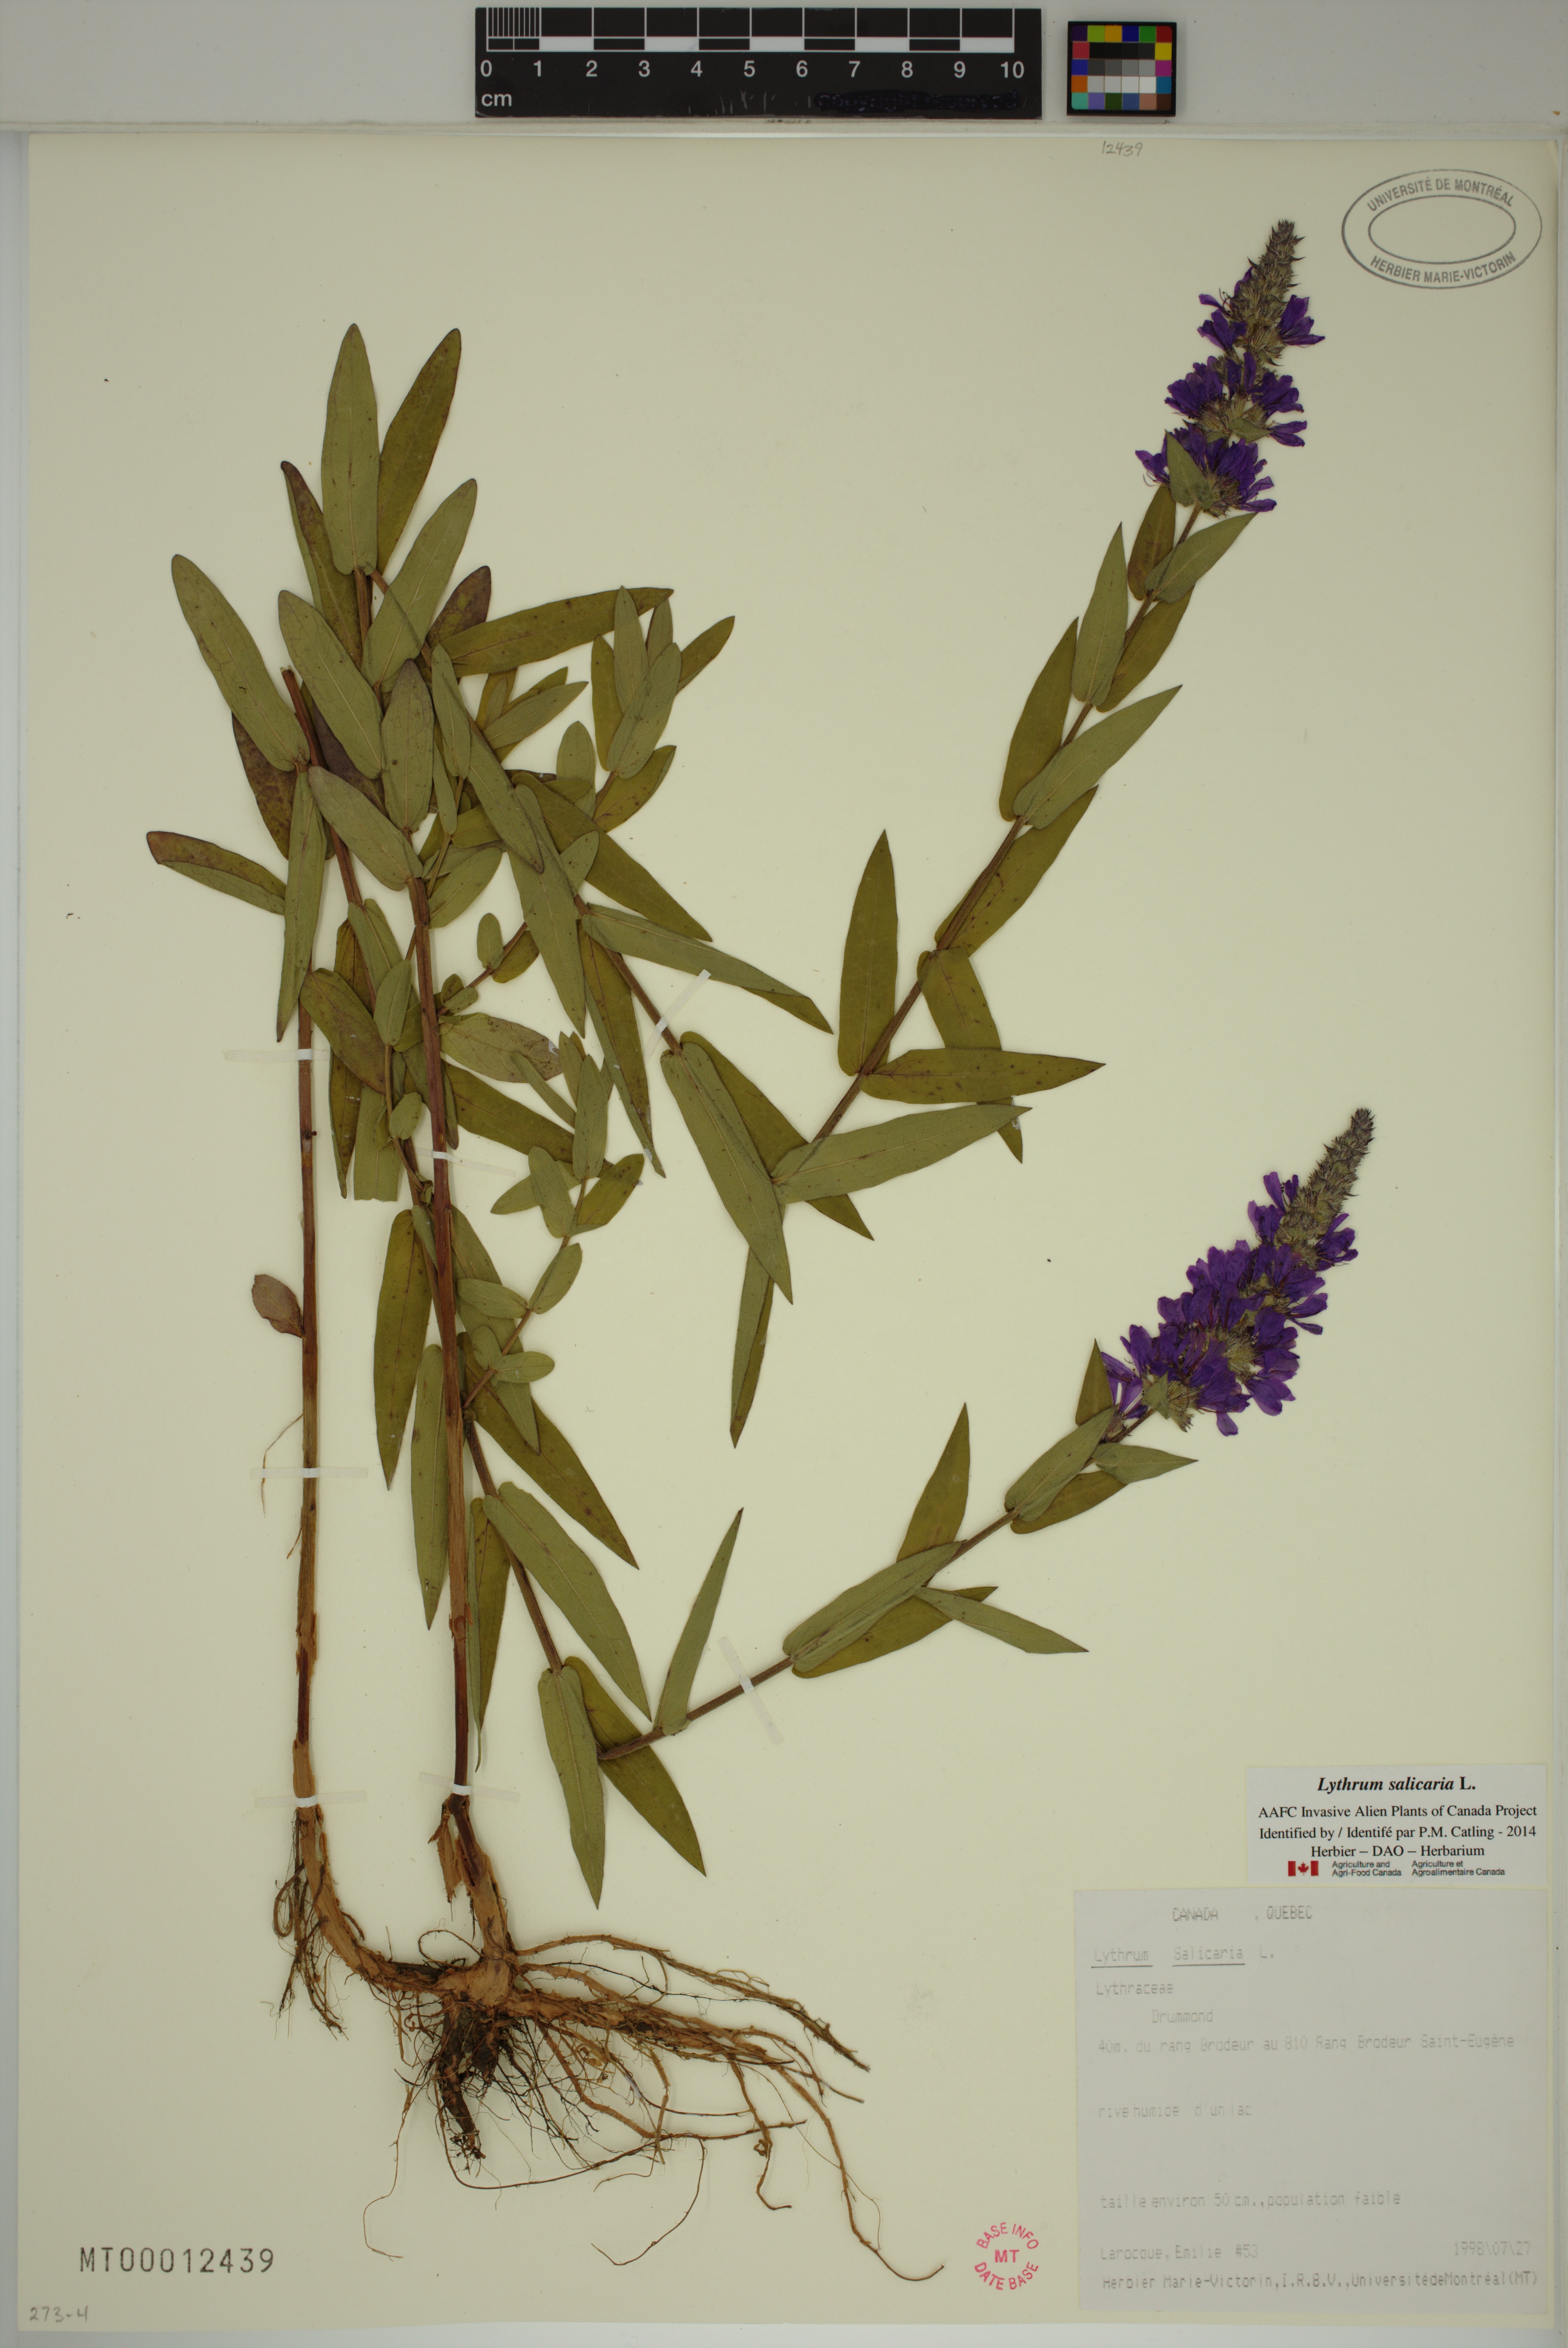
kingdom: Plantae
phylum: Tracheophyta
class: Magnoliopsida
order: Myrtales
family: Lythraceae
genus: Lythrum
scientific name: Lythrum salicaria
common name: Purple loosestrife
